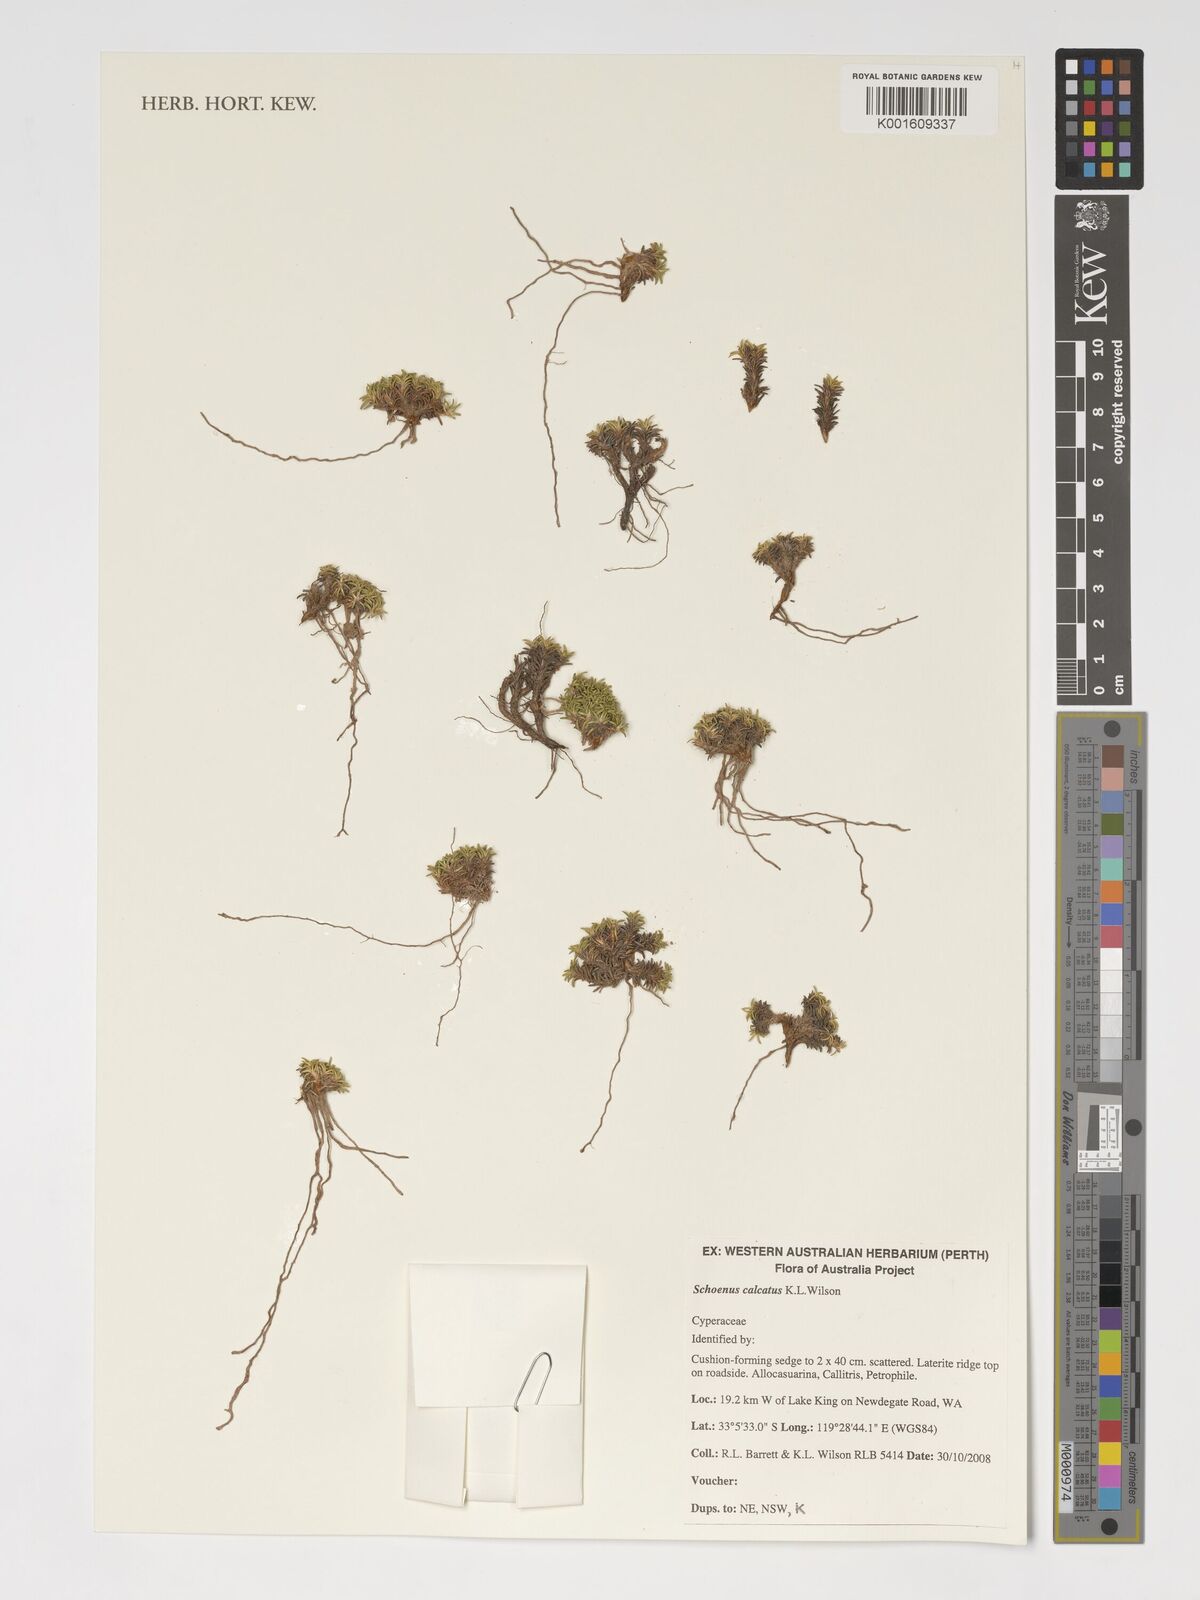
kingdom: Plantae
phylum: Tracheophyta
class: Liliopsida
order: Poales
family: Cyperaceae
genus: Schoenus
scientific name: Schoenus calcatus
